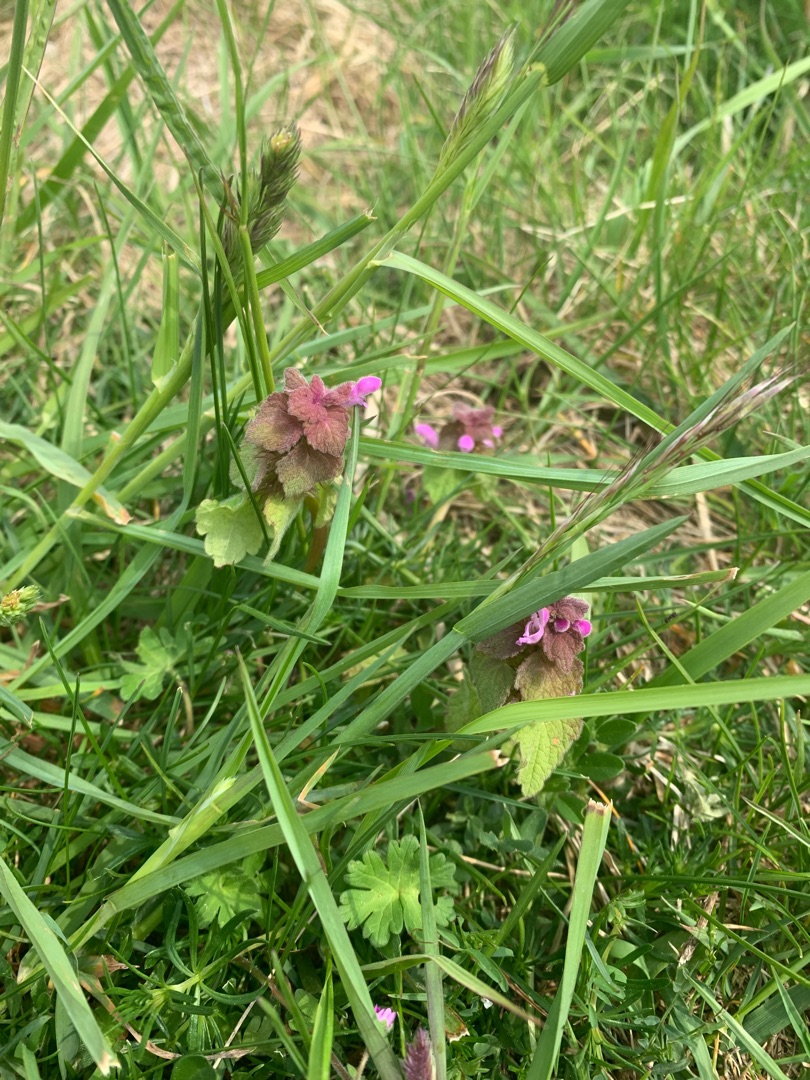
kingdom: Plantae
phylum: Tracheophyta
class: Magnoliopsida
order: Lamiales
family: Lamiaceae
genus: Lamium
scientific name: Lamium purpureum
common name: Rød tvetand
